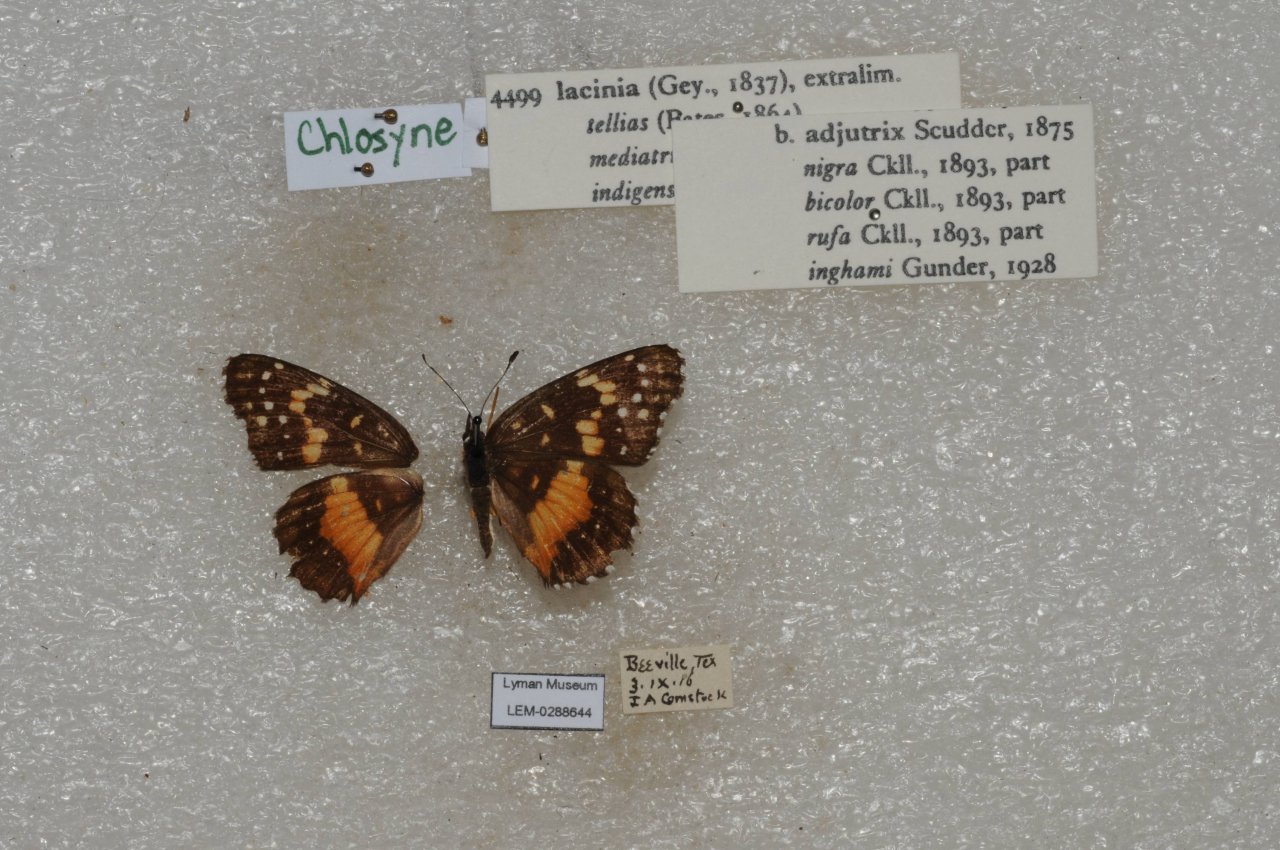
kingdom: Animalia
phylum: Arthropoda
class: Insecta
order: Lepidoptera
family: Nymphalidae
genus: Chlosyne
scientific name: Chlosyne lacinia
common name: Bordered Patch
